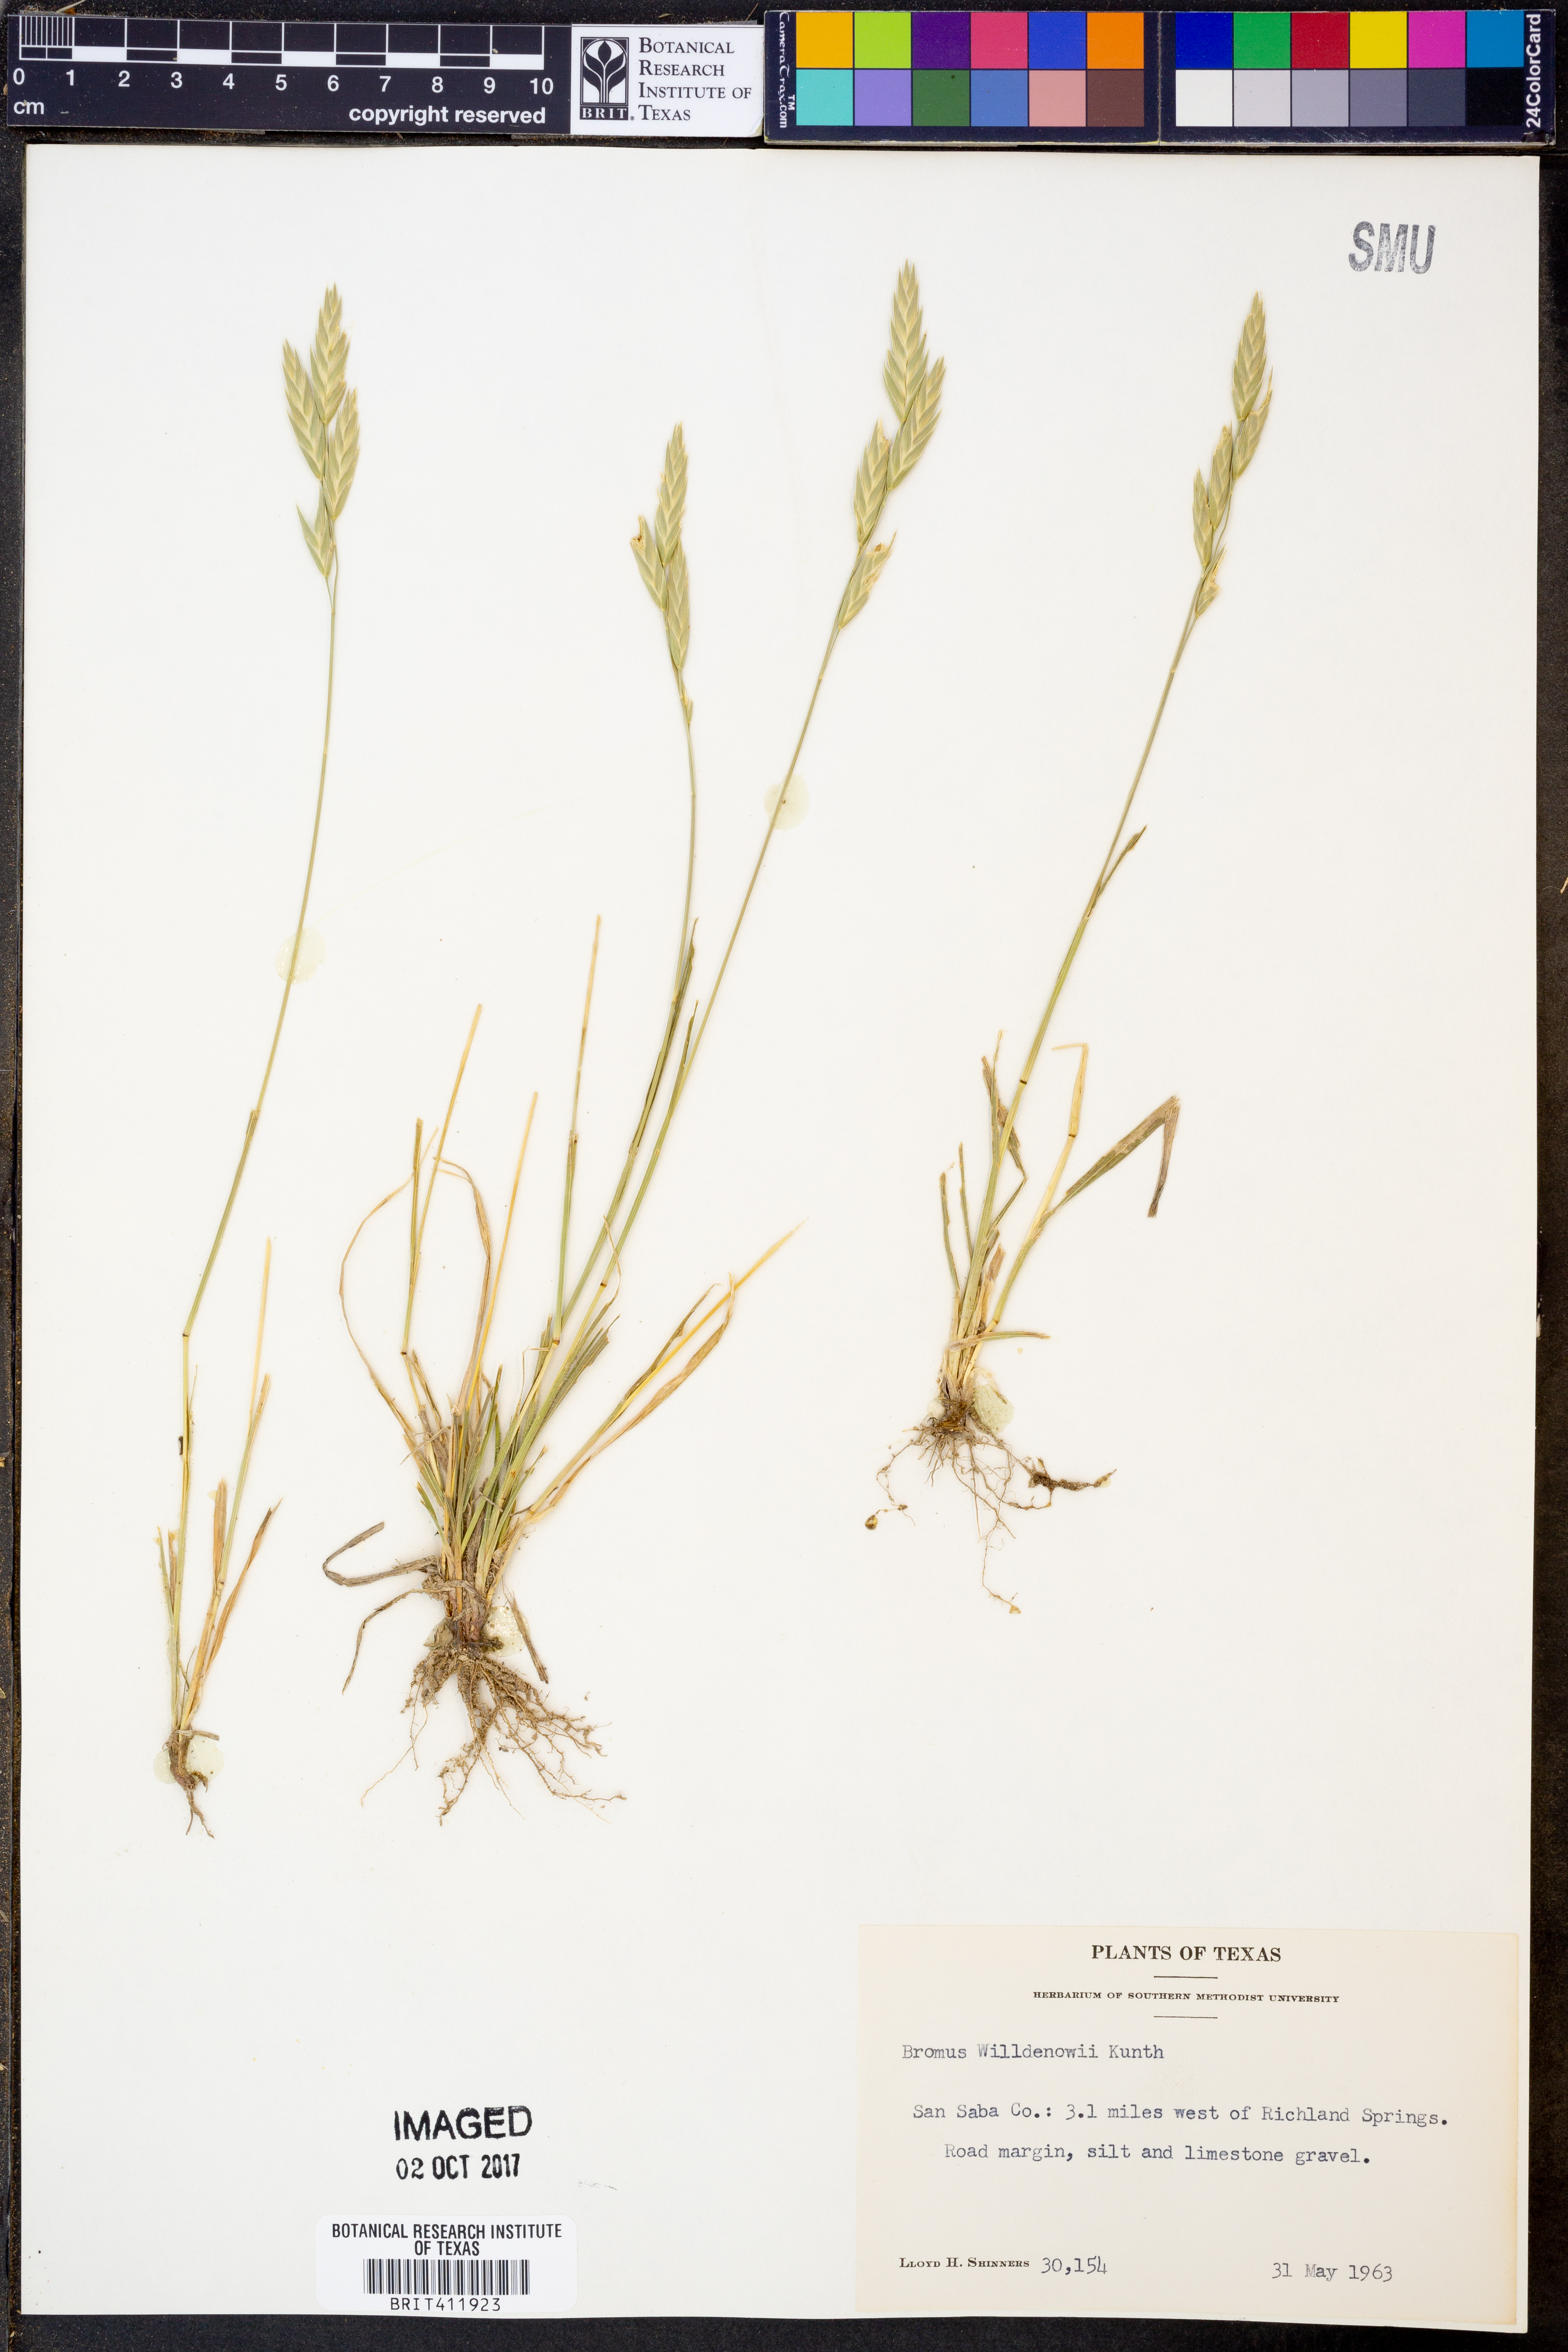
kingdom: Plantae
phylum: Tracheophyta
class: Liliopsida
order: Poales
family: Poaceae
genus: Bromus
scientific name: Bromus catharticus
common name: Rescuegrass
